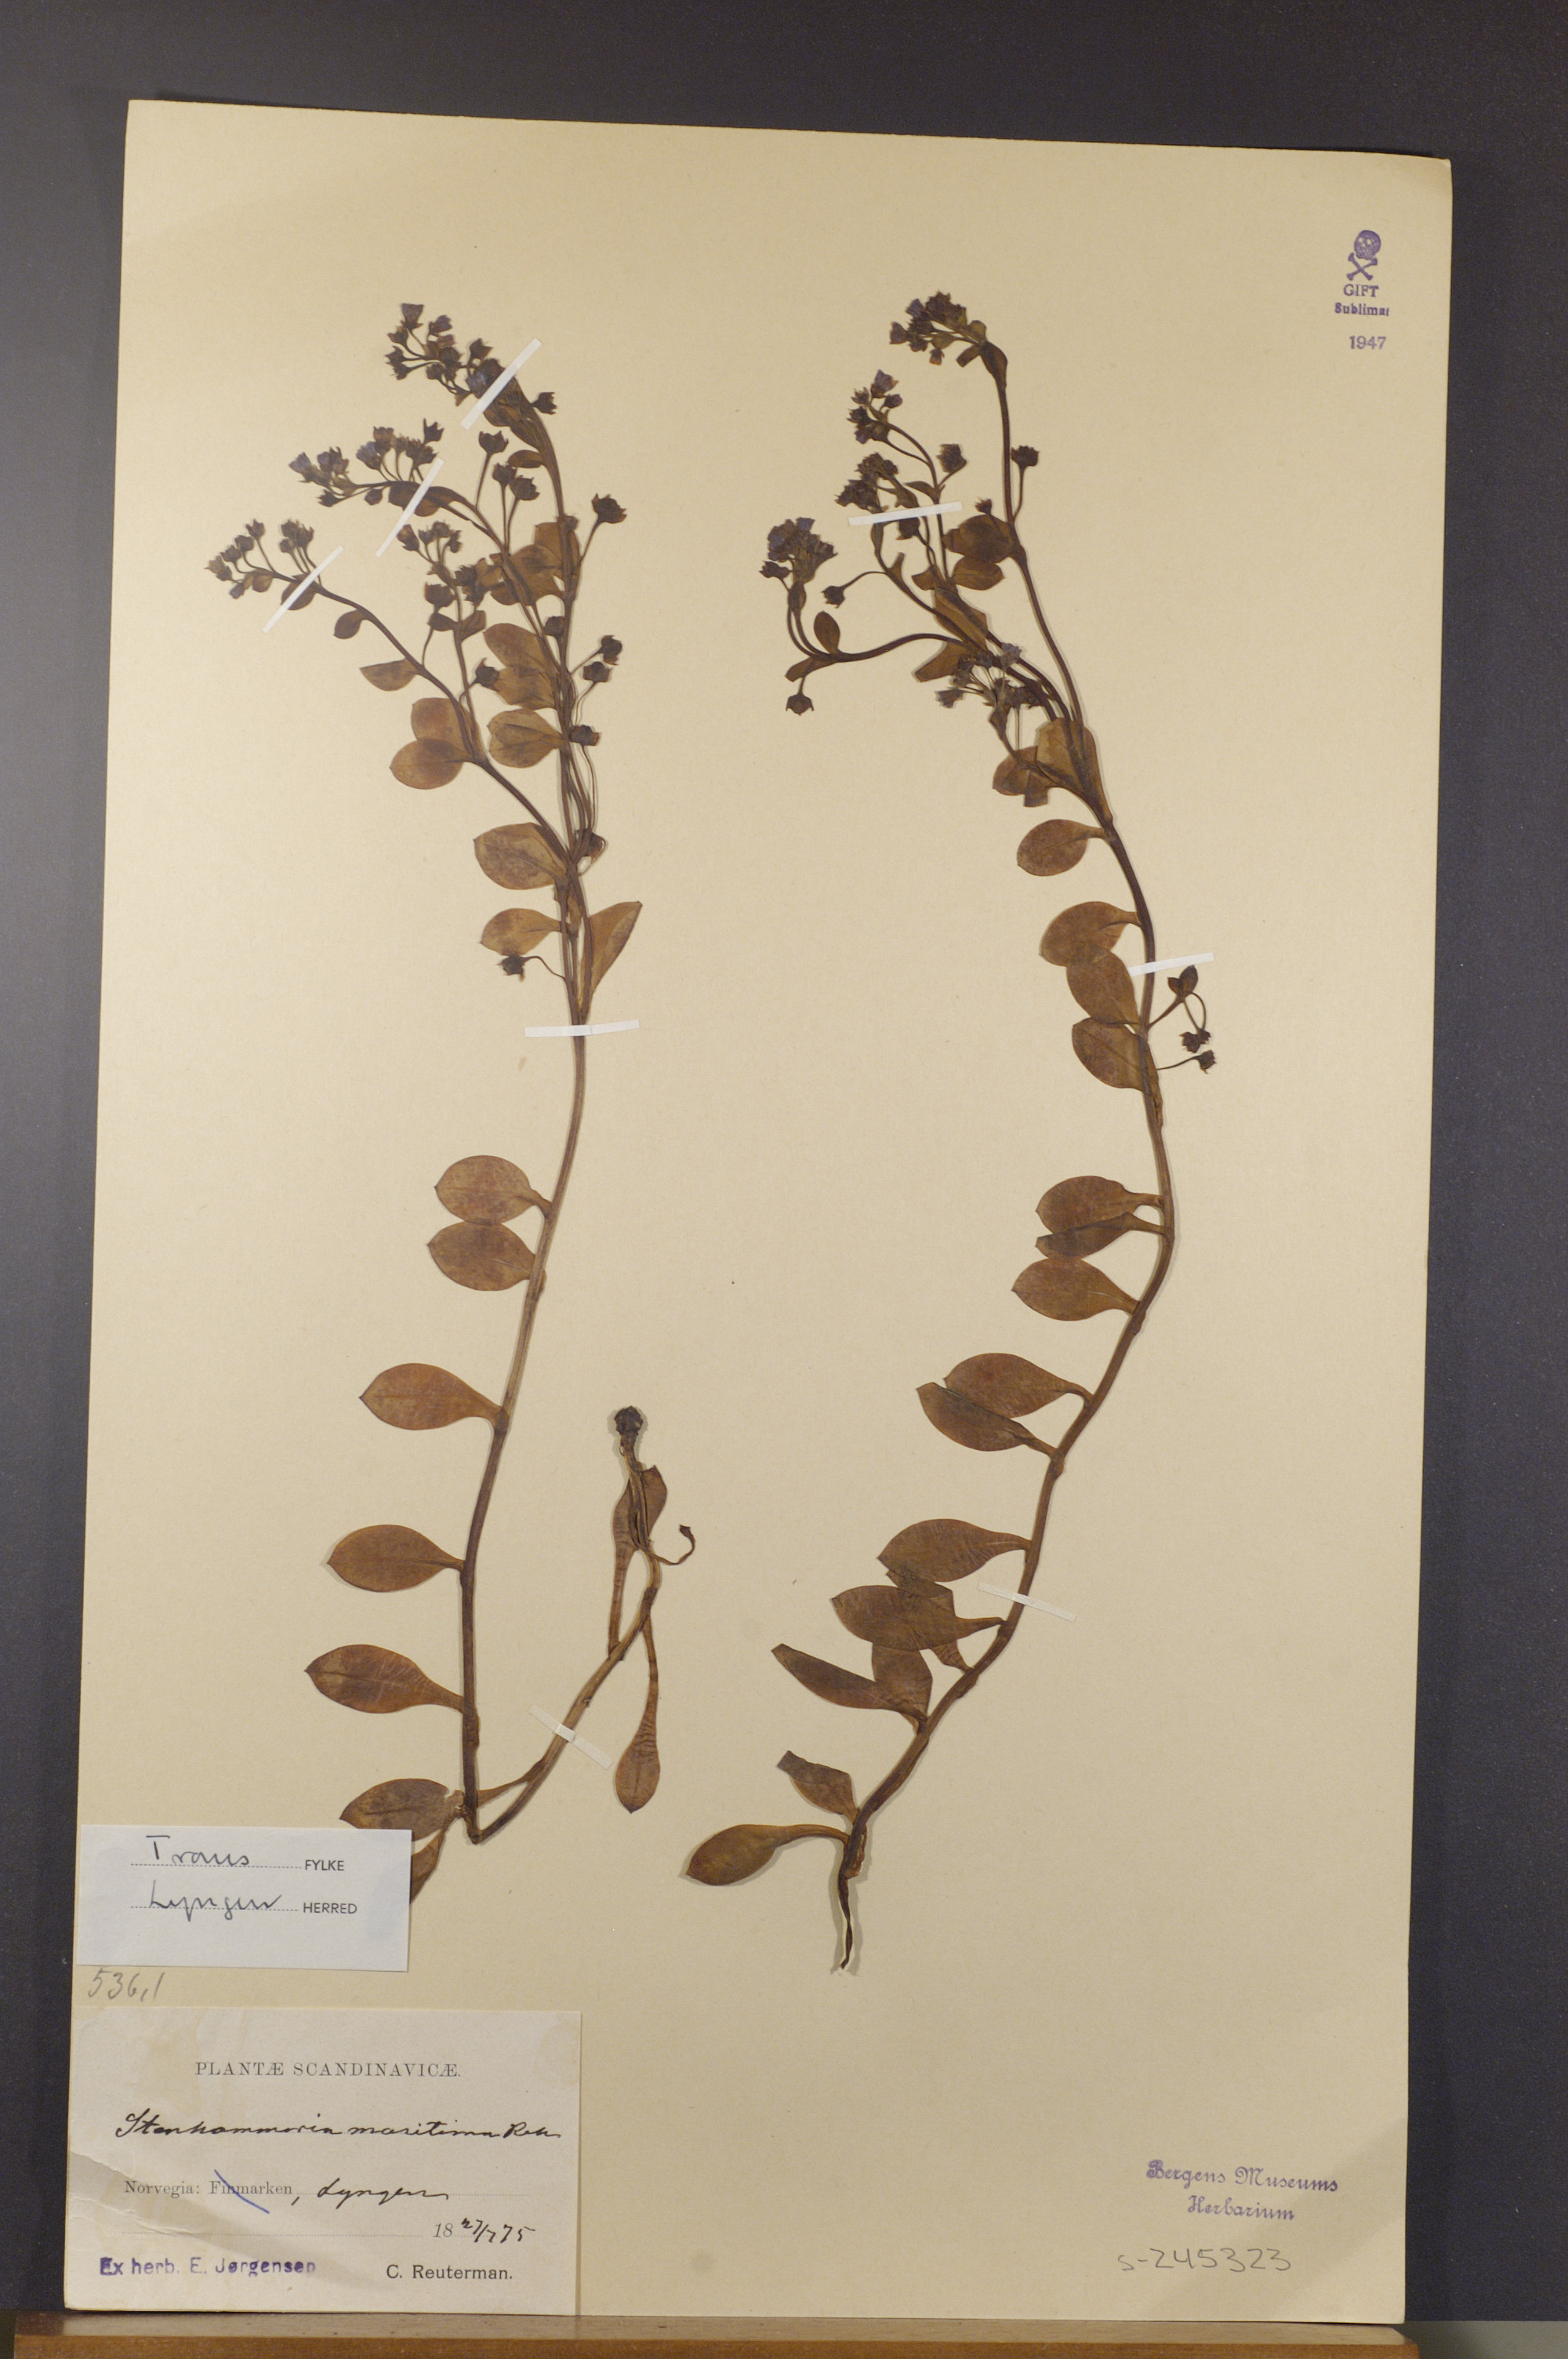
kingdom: Plantae
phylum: Tracheophyta
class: Magnoliopsida
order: Boraginales
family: Boraginaceae
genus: Mertensia
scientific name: Mertensia maritima
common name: Oysterplant
